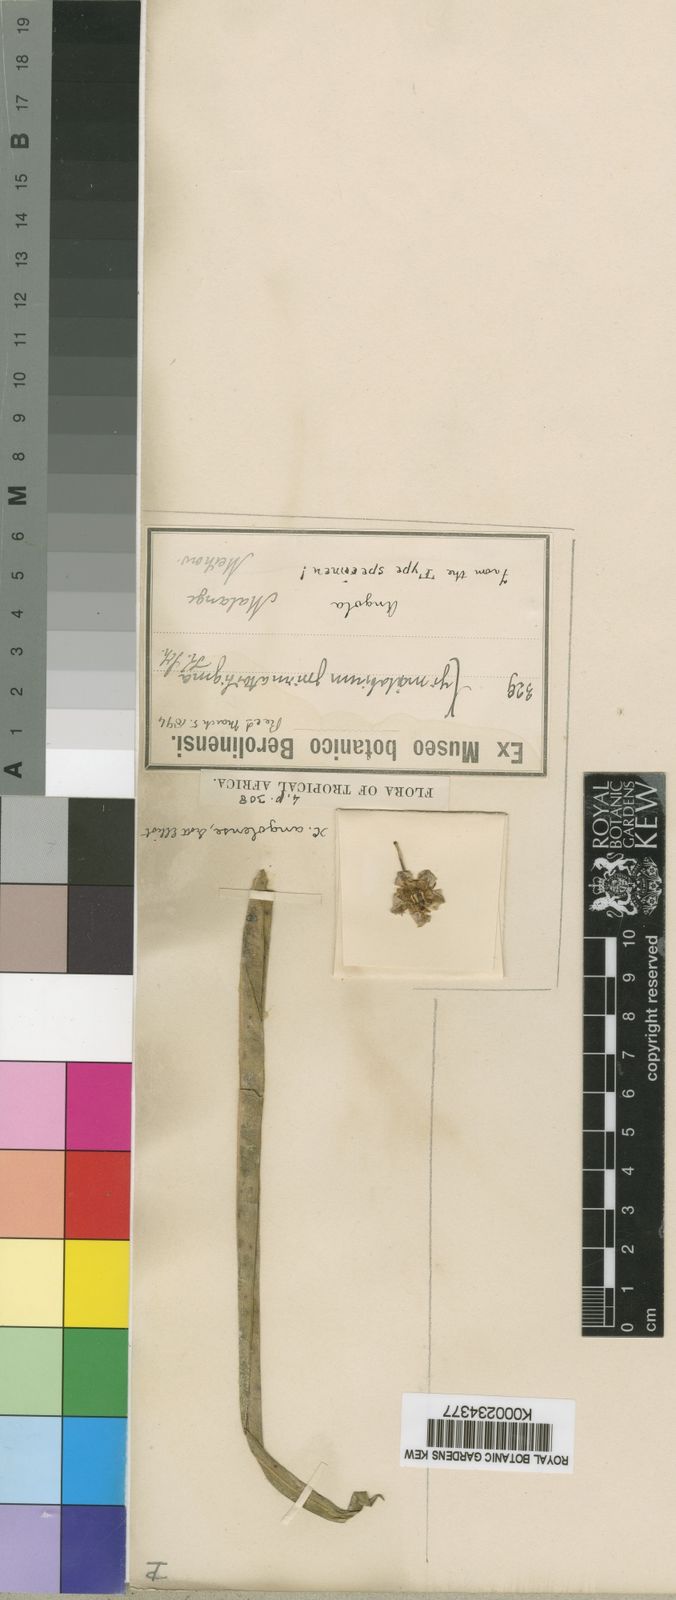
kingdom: Plantae
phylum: Tracheophyta
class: Magnoliopsida
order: Gentianales
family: Apocynaceae
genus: Xysmalobium
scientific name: Xysmalobium undulatum
